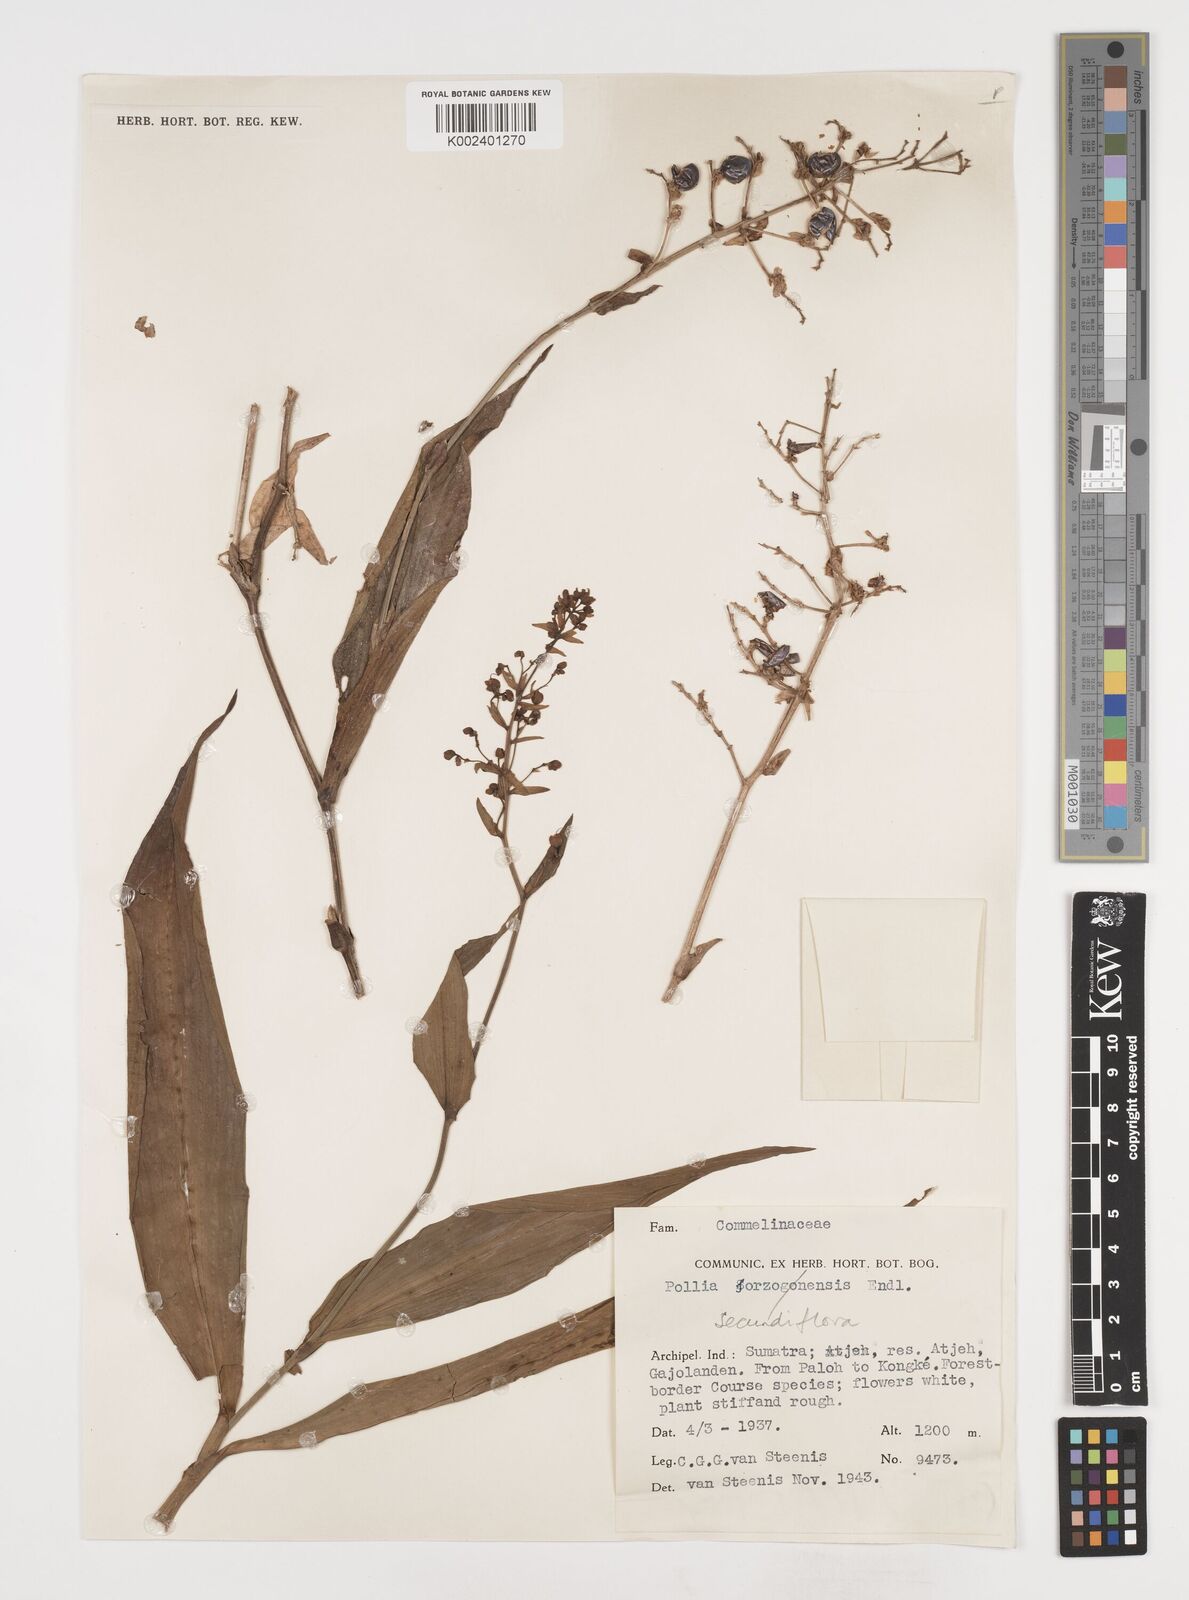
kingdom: Plantae
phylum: Tracheophyta
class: Liliopsida
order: Commelinales
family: Commelinaceae
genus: Pollia
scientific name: Pollia secundiflora
